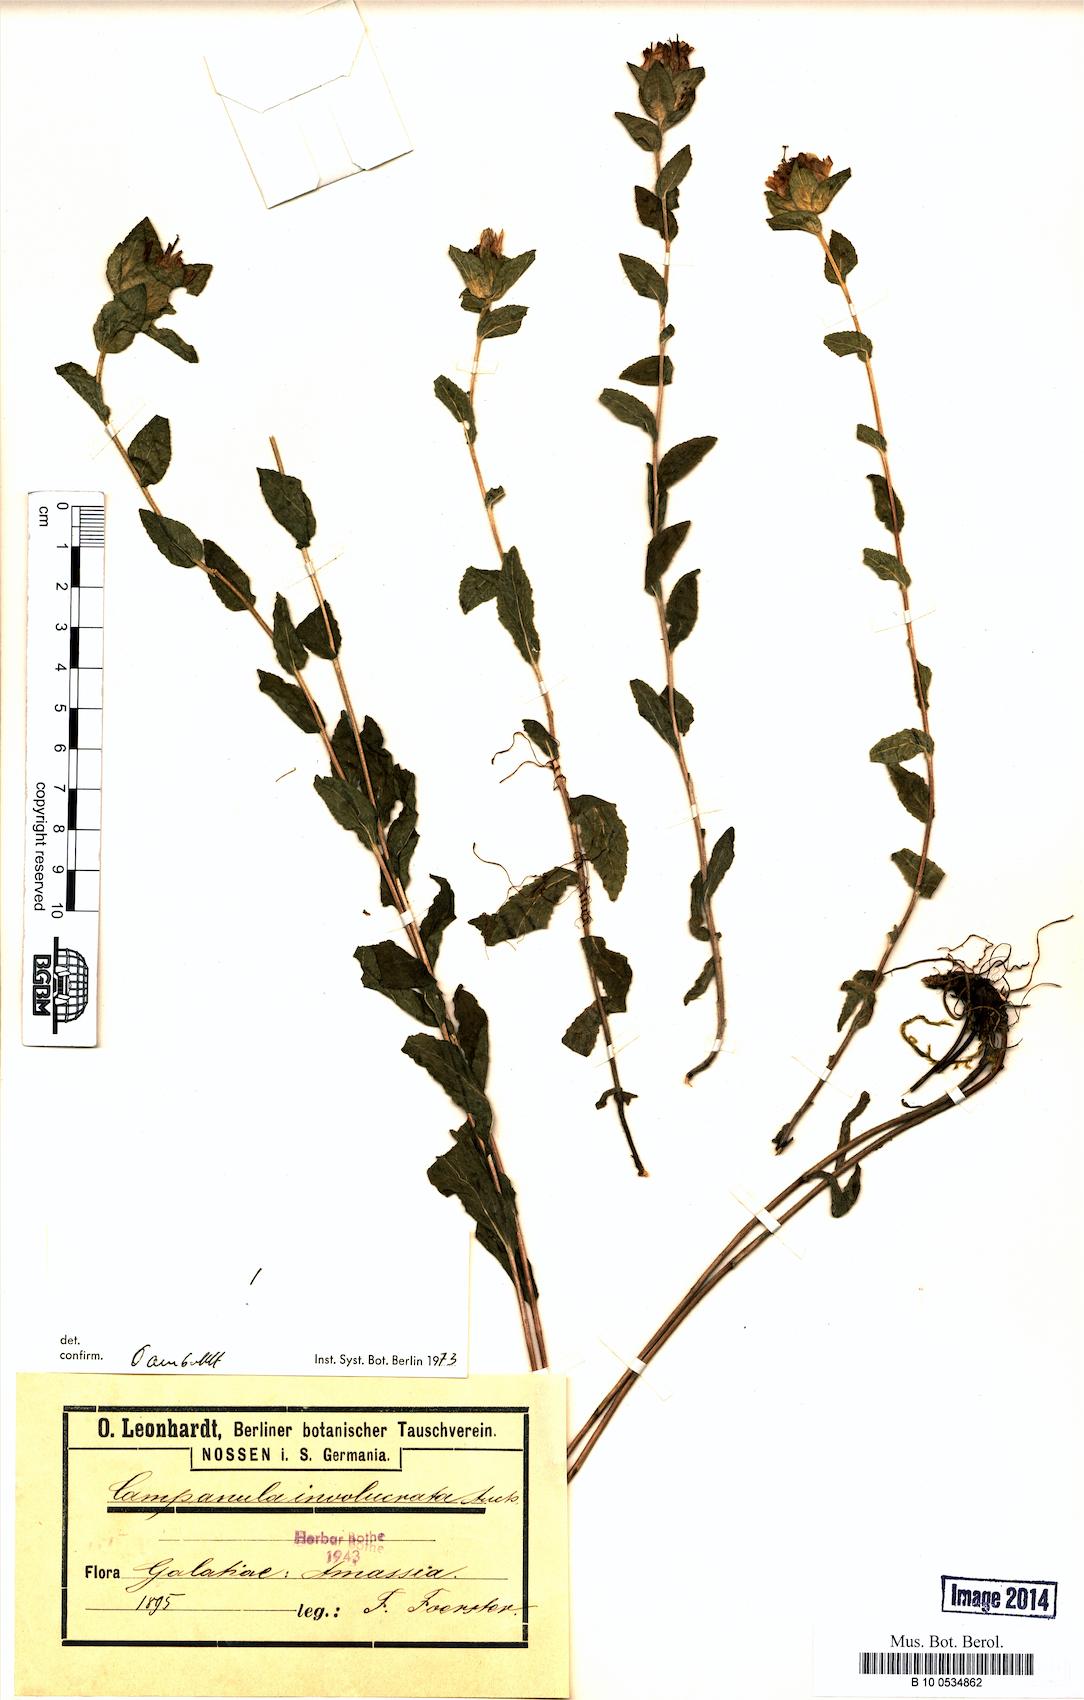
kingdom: Plantae
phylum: Tracheophyta
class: Magnoliopsida
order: Asterales
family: Campanulaceae
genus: Campanula
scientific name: Campanula involucrata
